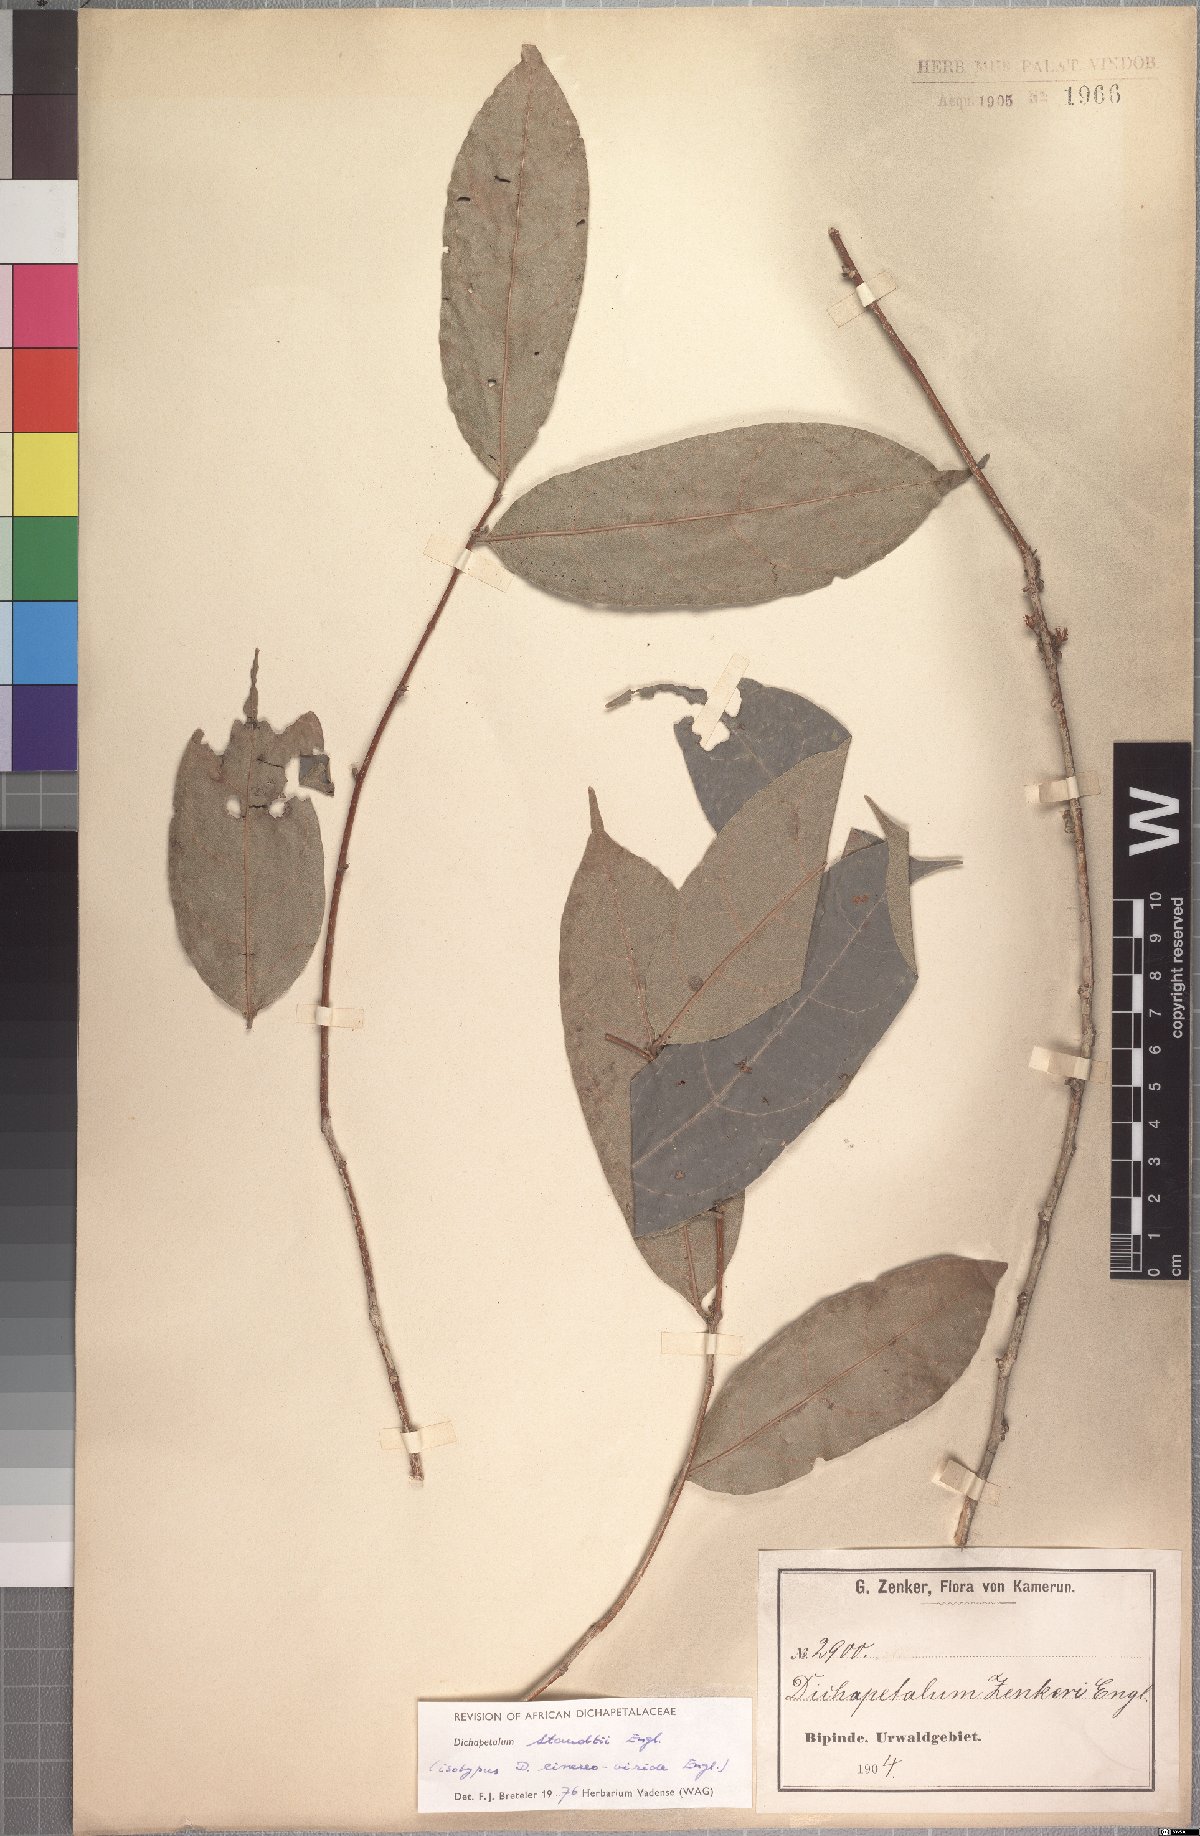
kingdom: Plantae
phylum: Tracheophyta
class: Magnoliopsida
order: Malpighiales
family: Dichapetalaceae
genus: Dichapetalum
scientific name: Dichapetalum staudtii
